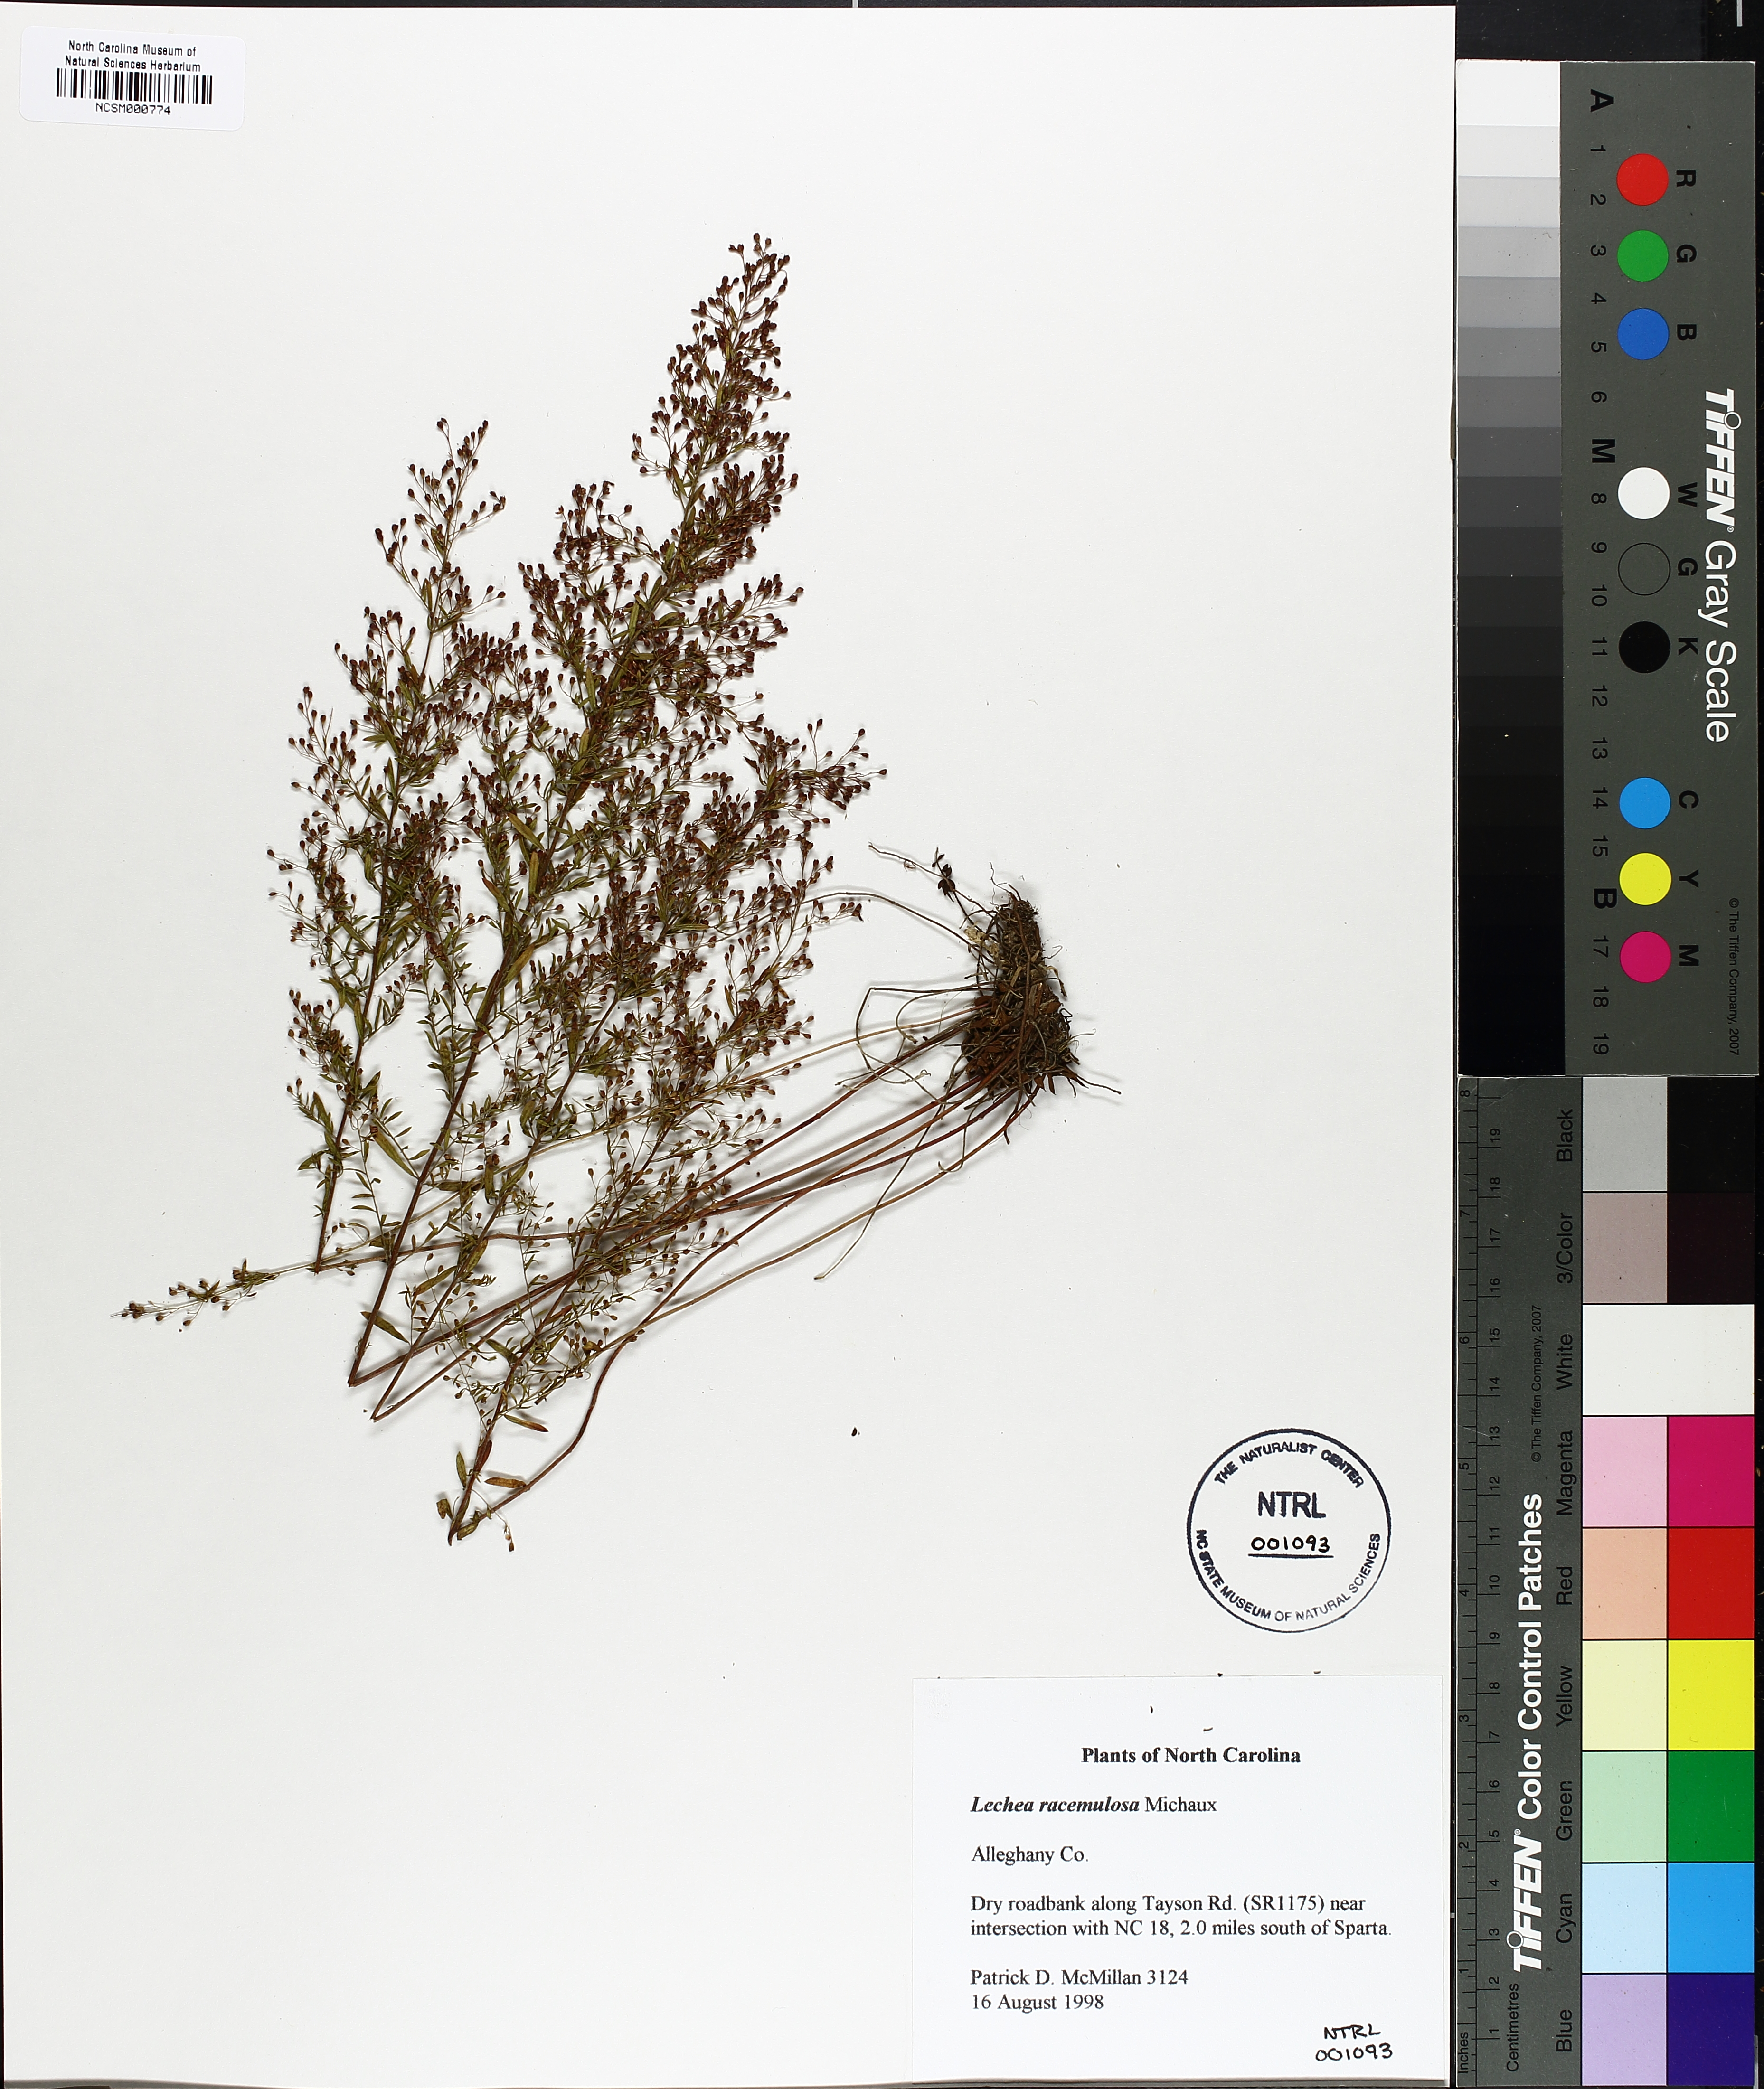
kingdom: Plantae
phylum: Tracheophyta
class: Magnoliopsida
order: Malvales
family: Cistaceae
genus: Lechea
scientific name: Lechea racemulosa
